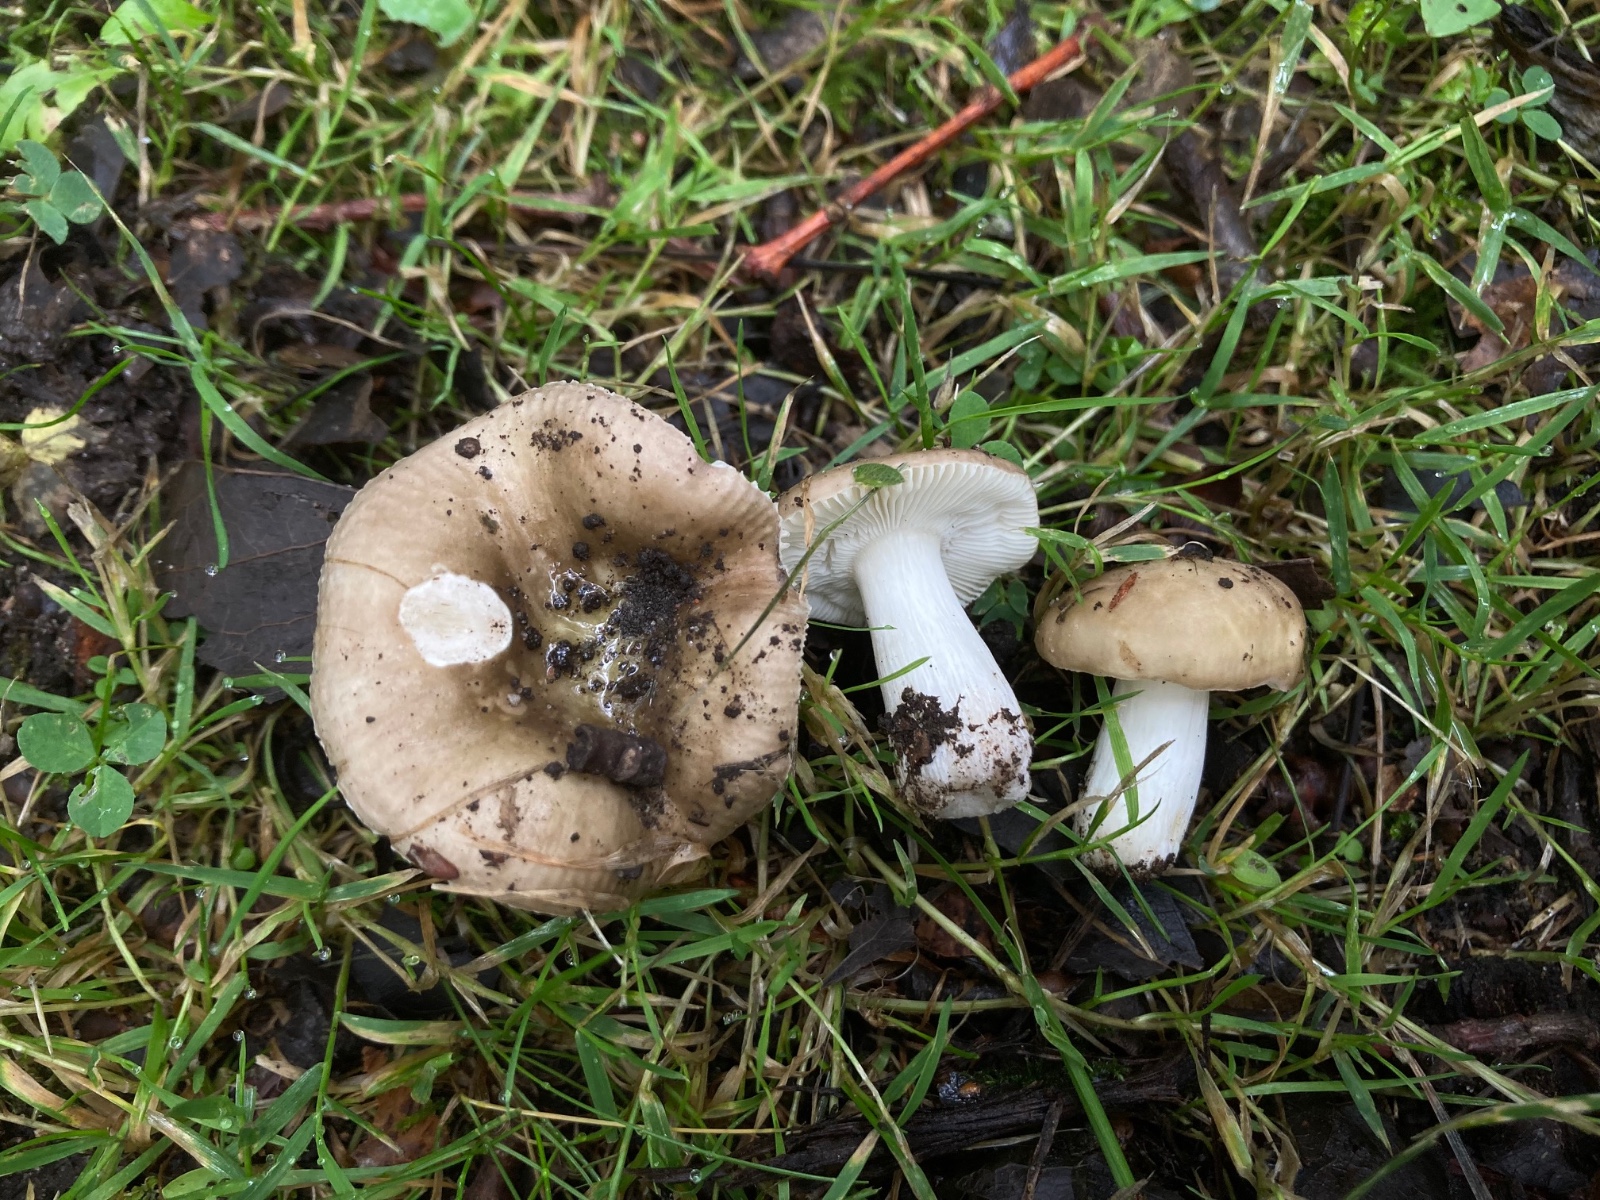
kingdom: Fungi
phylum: Basidiomycota
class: Agaricomycetes
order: Russulales
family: Russulaceae
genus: Russula
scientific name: Russula pelargonia
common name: pelargonie-skørhat
